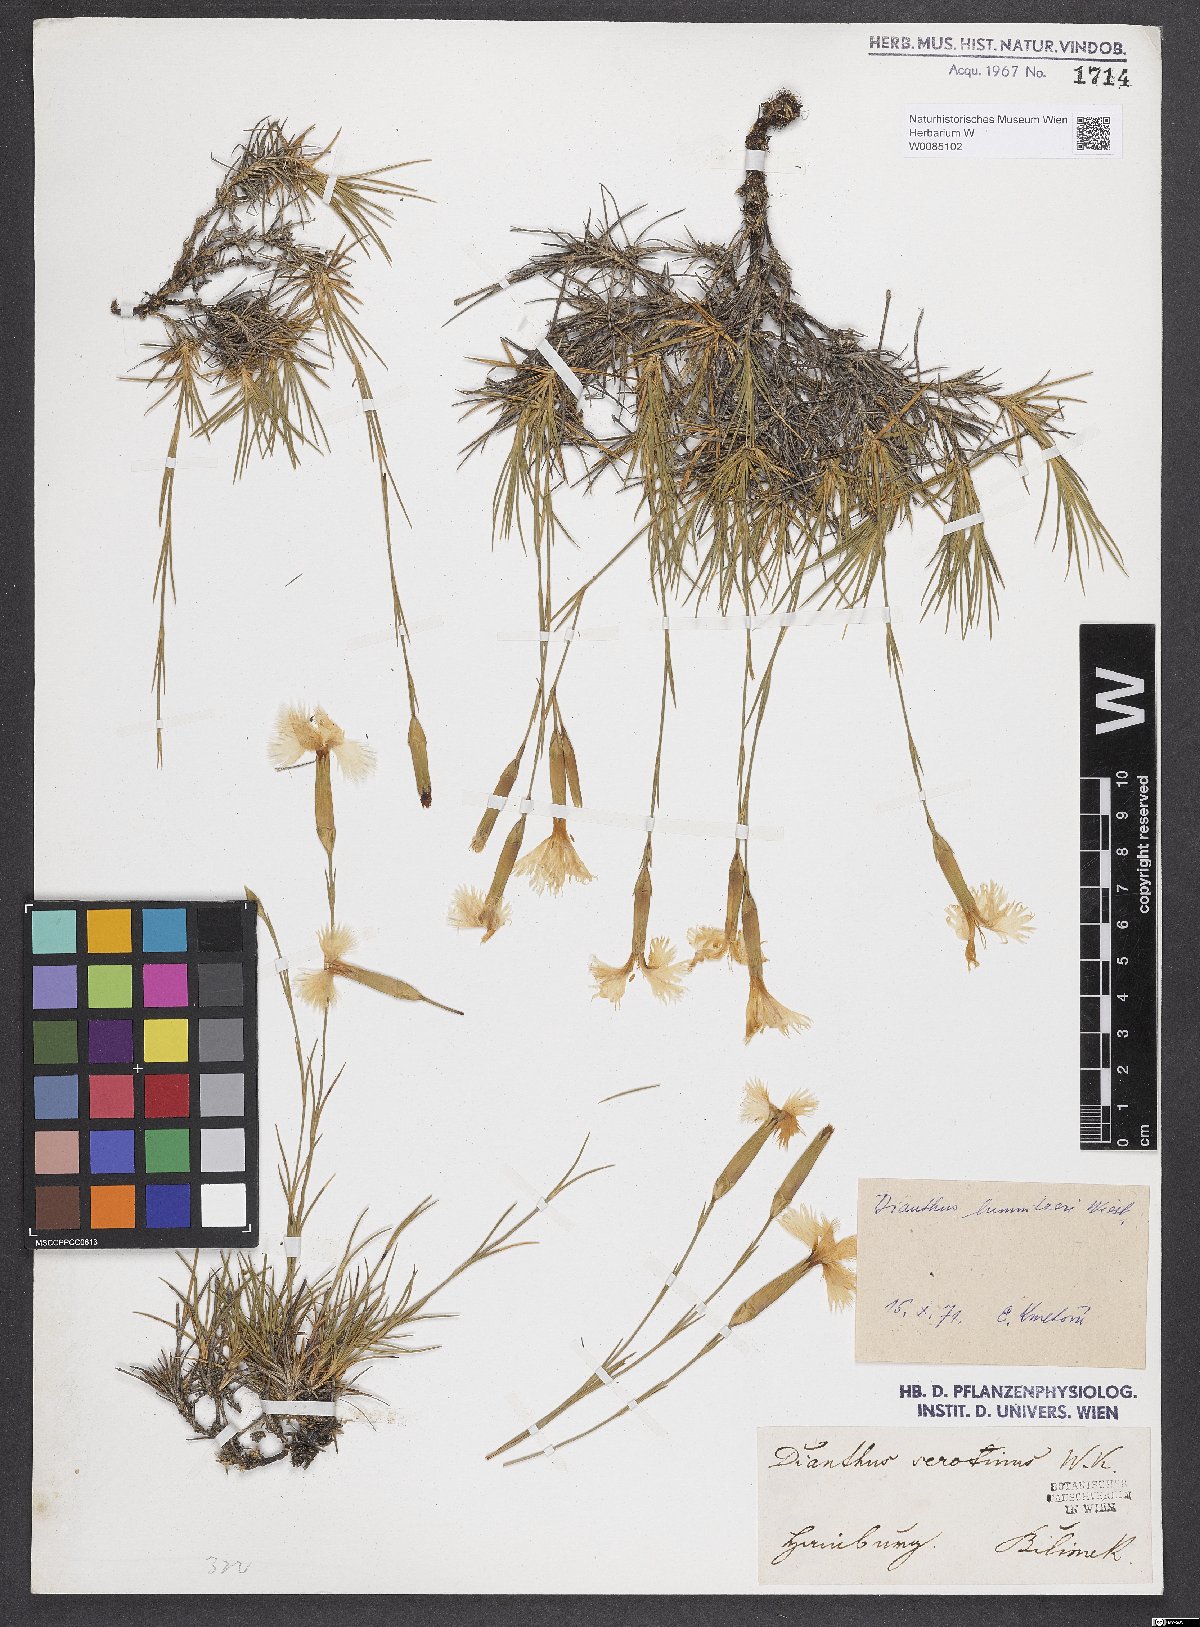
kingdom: Plantae
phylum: Tracheophyta
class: Magnoliopsida
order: Caryophyllales
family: Caryophyllaceae
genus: Dianthus
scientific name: Dianthus praecox
